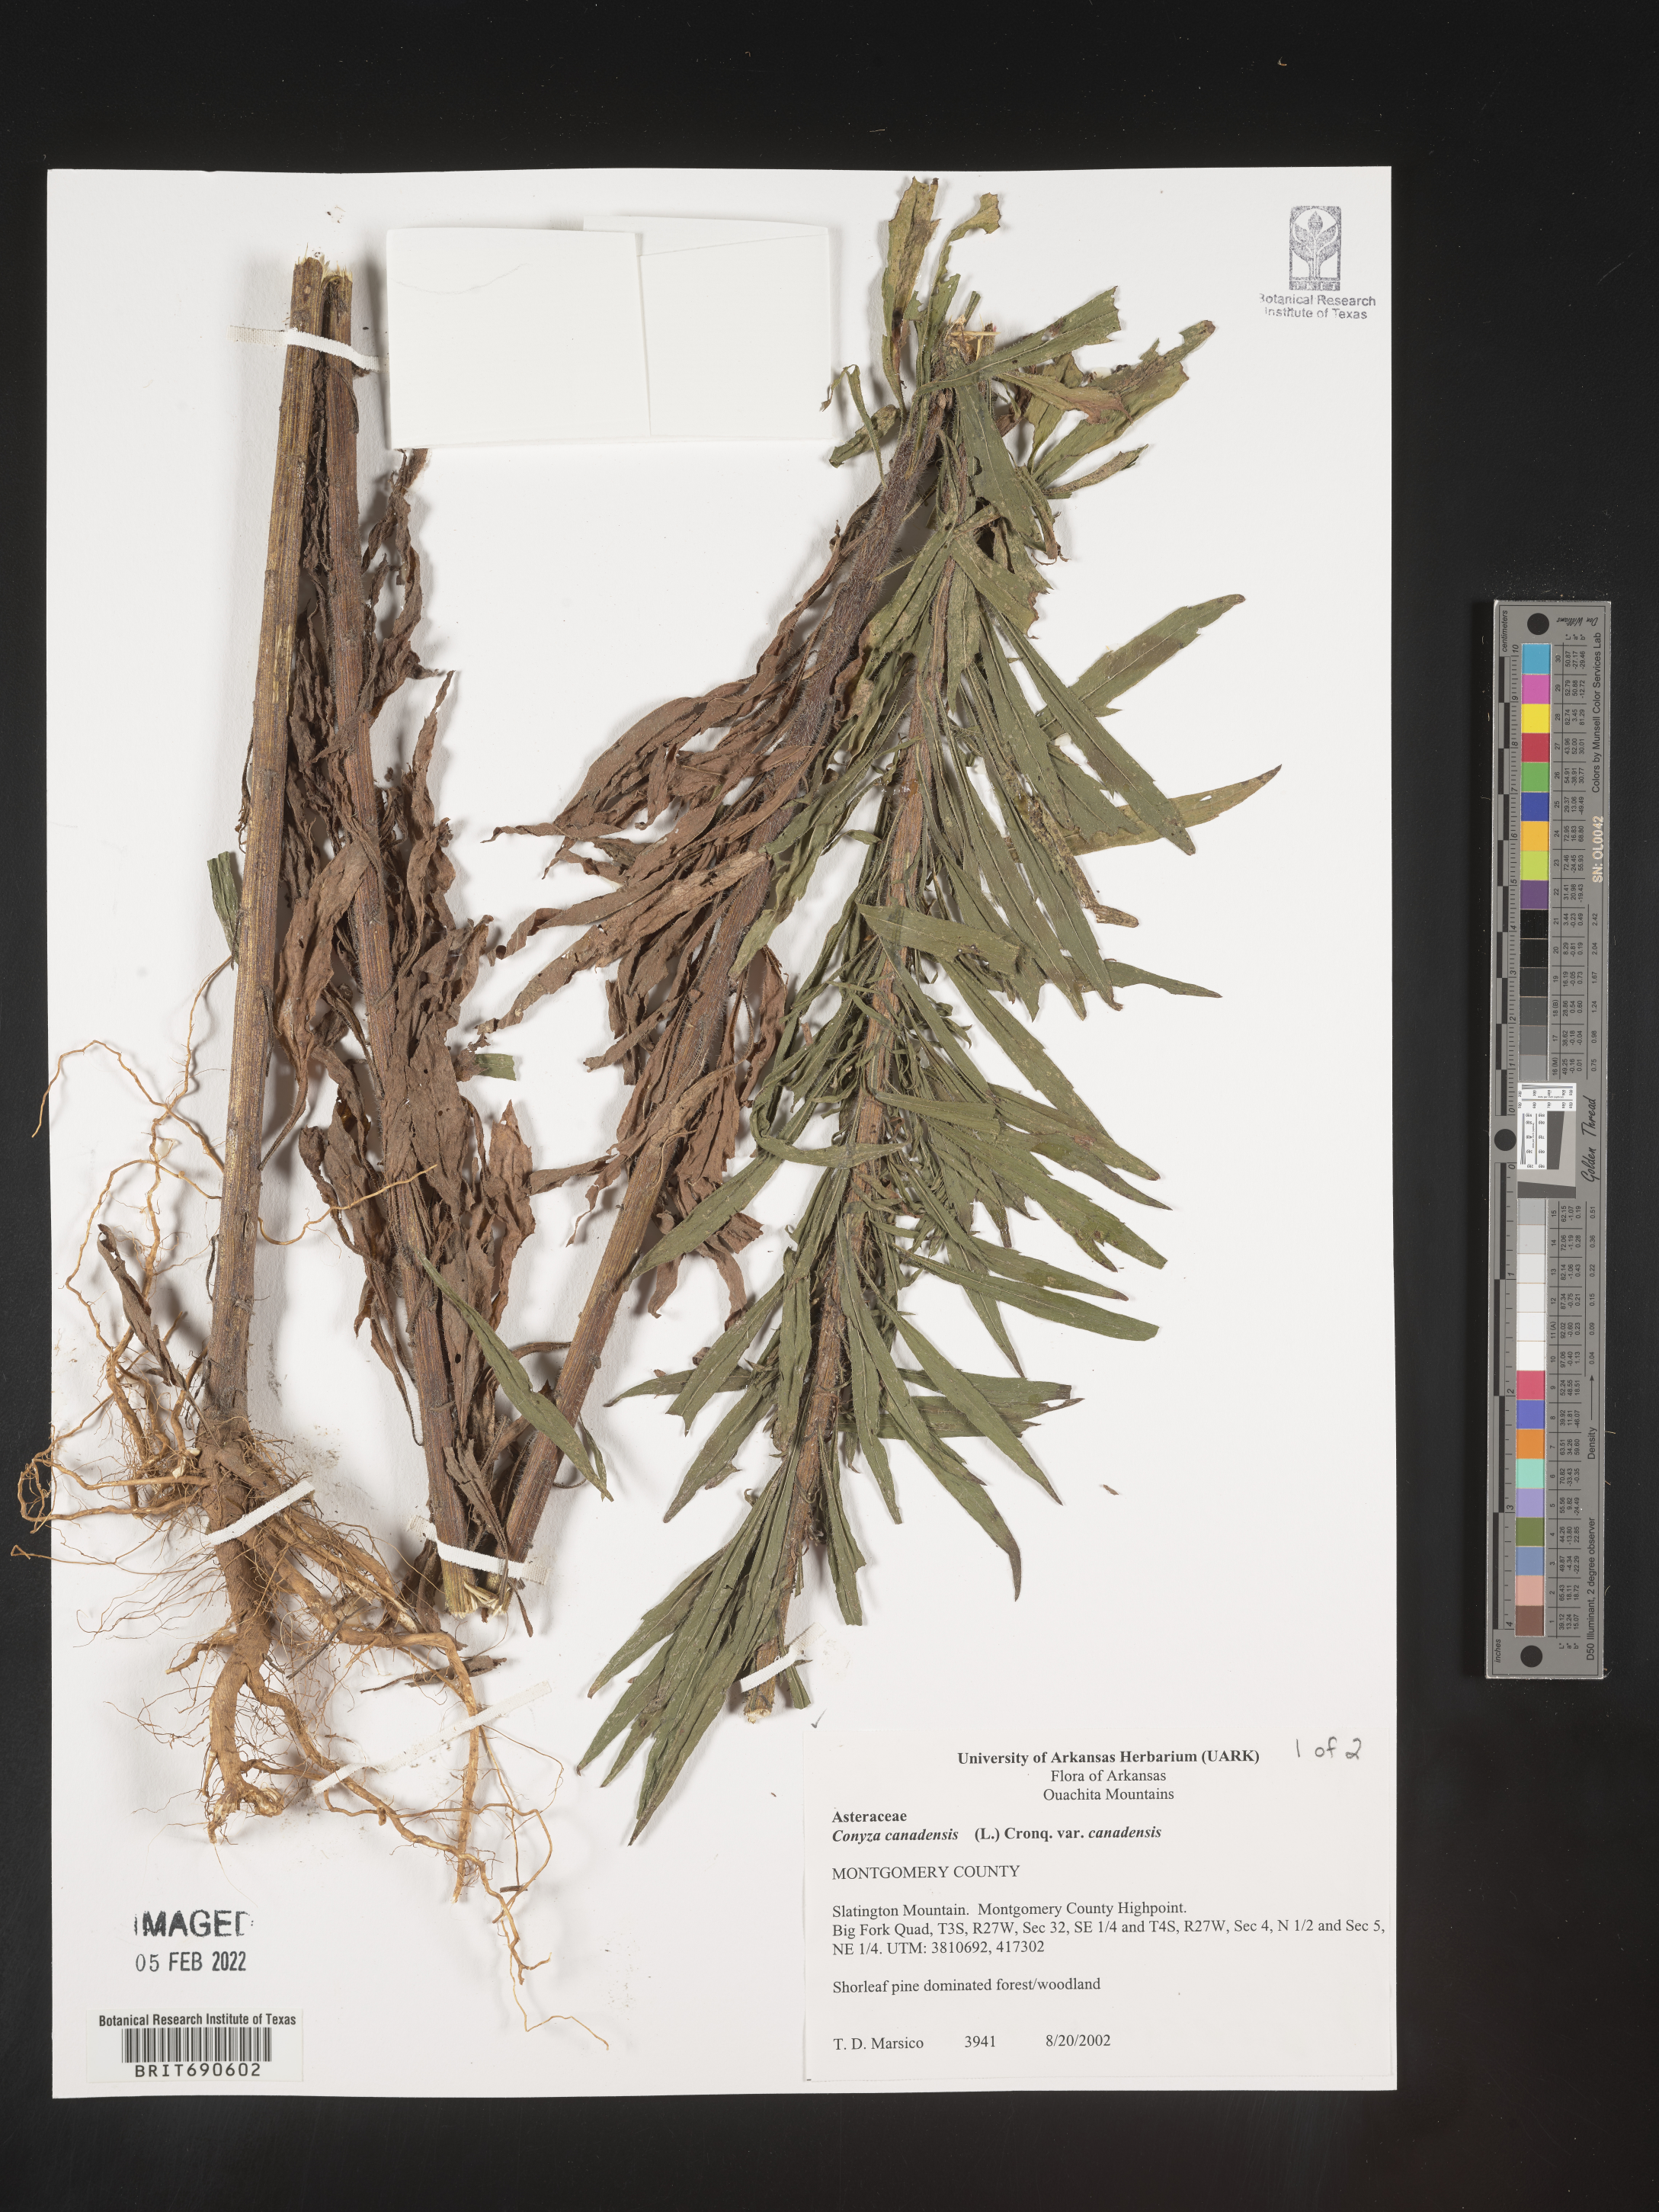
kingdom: Plantae
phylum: Tracheophyta
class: Magnoliopsida
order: Asterales
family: Asteraceae
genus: Erigeron
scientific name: Erigeron canadensis
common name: Canadian fleabane
